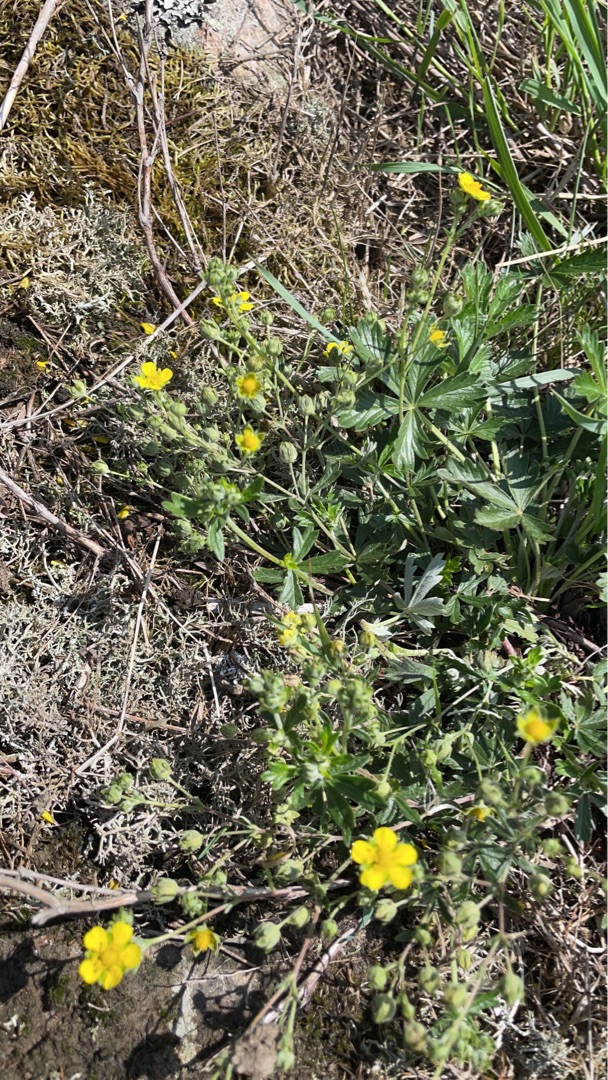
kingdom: Plantae
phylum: Tracheophyta
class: Magnoliopsida
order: Rosales
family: Rosaceae
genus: Potentilla
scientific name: Potentilla argentea
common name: Sølv-potentil
